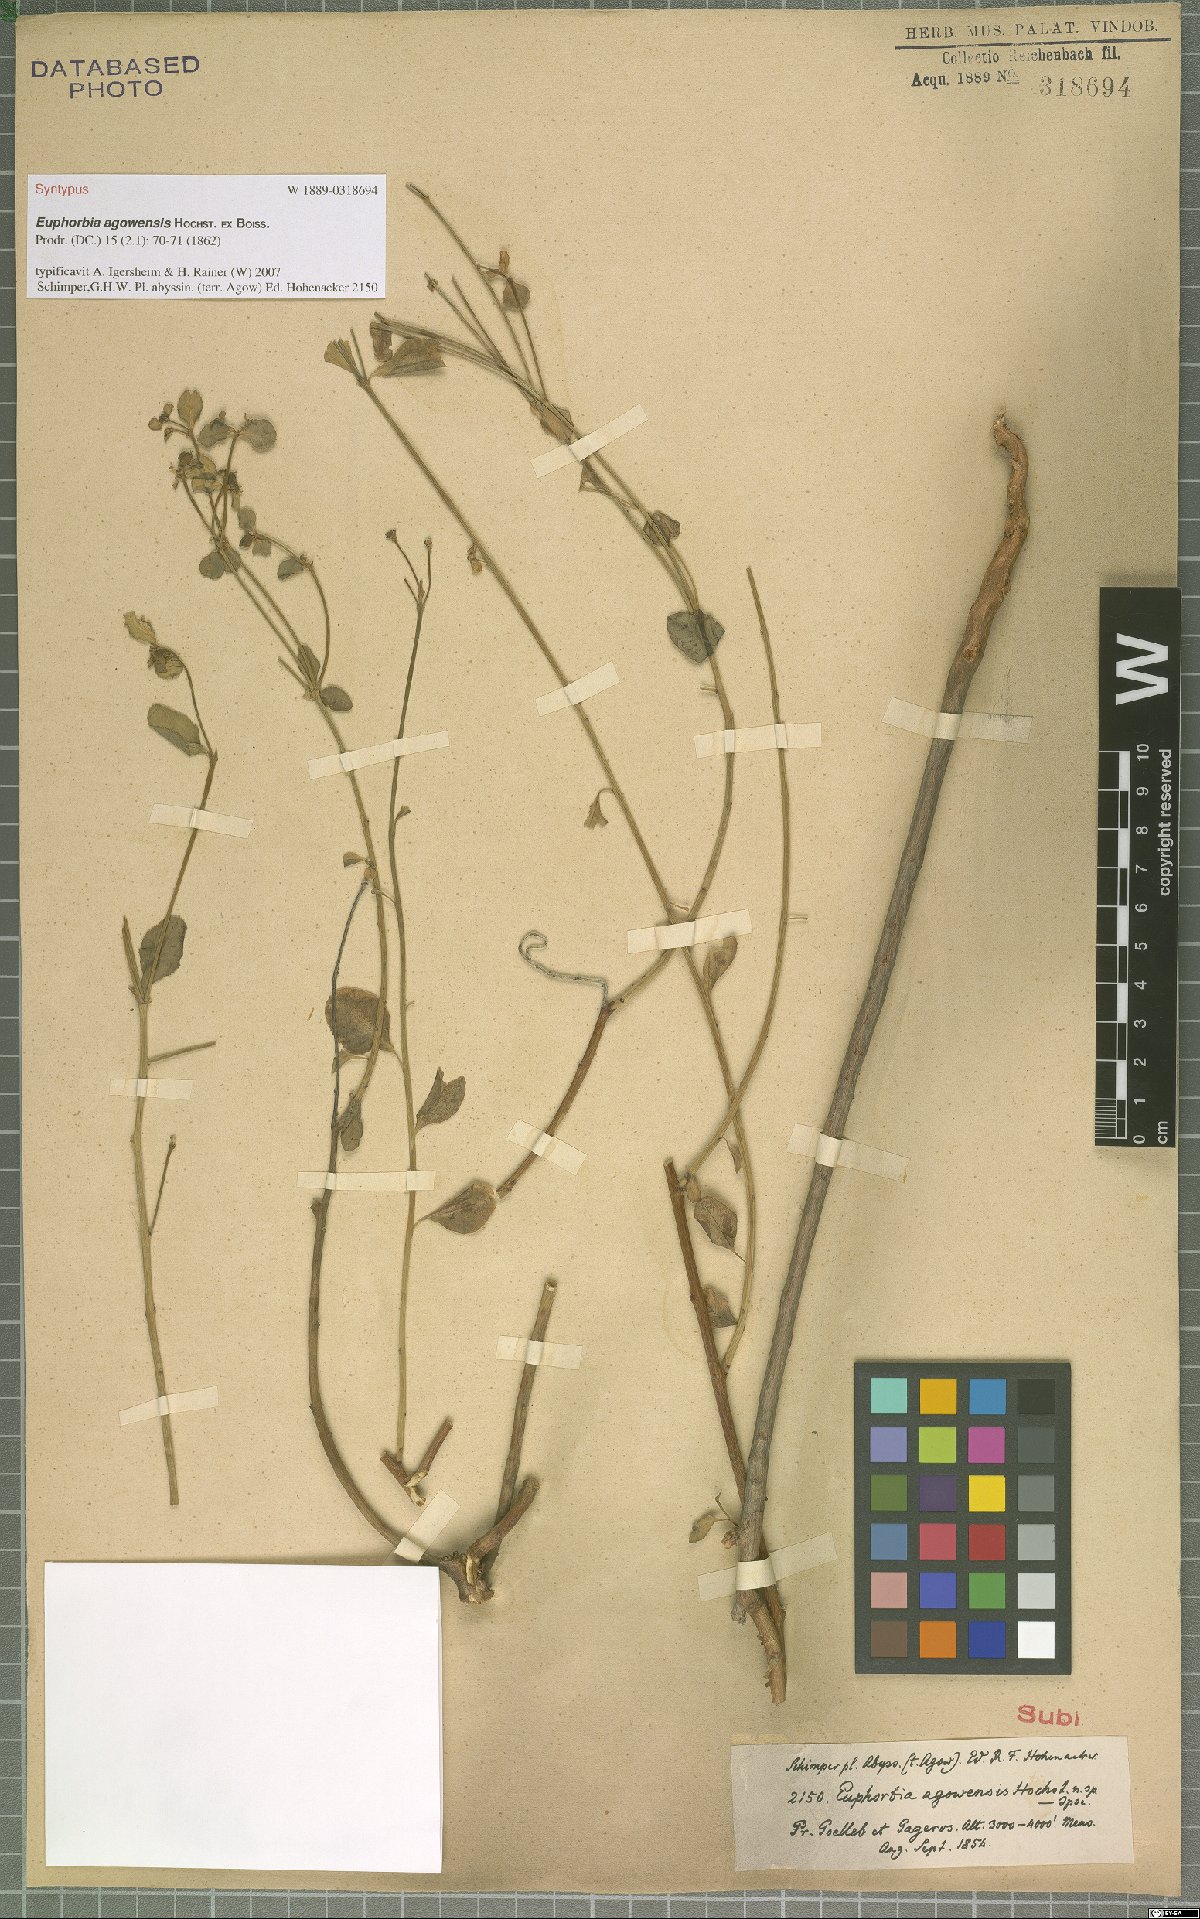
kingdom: Plantae
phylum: Tracheophyta
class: Magnoliopsida
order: Malpighiales
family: Euphorbiaceae
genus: Euphorbia
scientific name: Euphorbia agowensis
